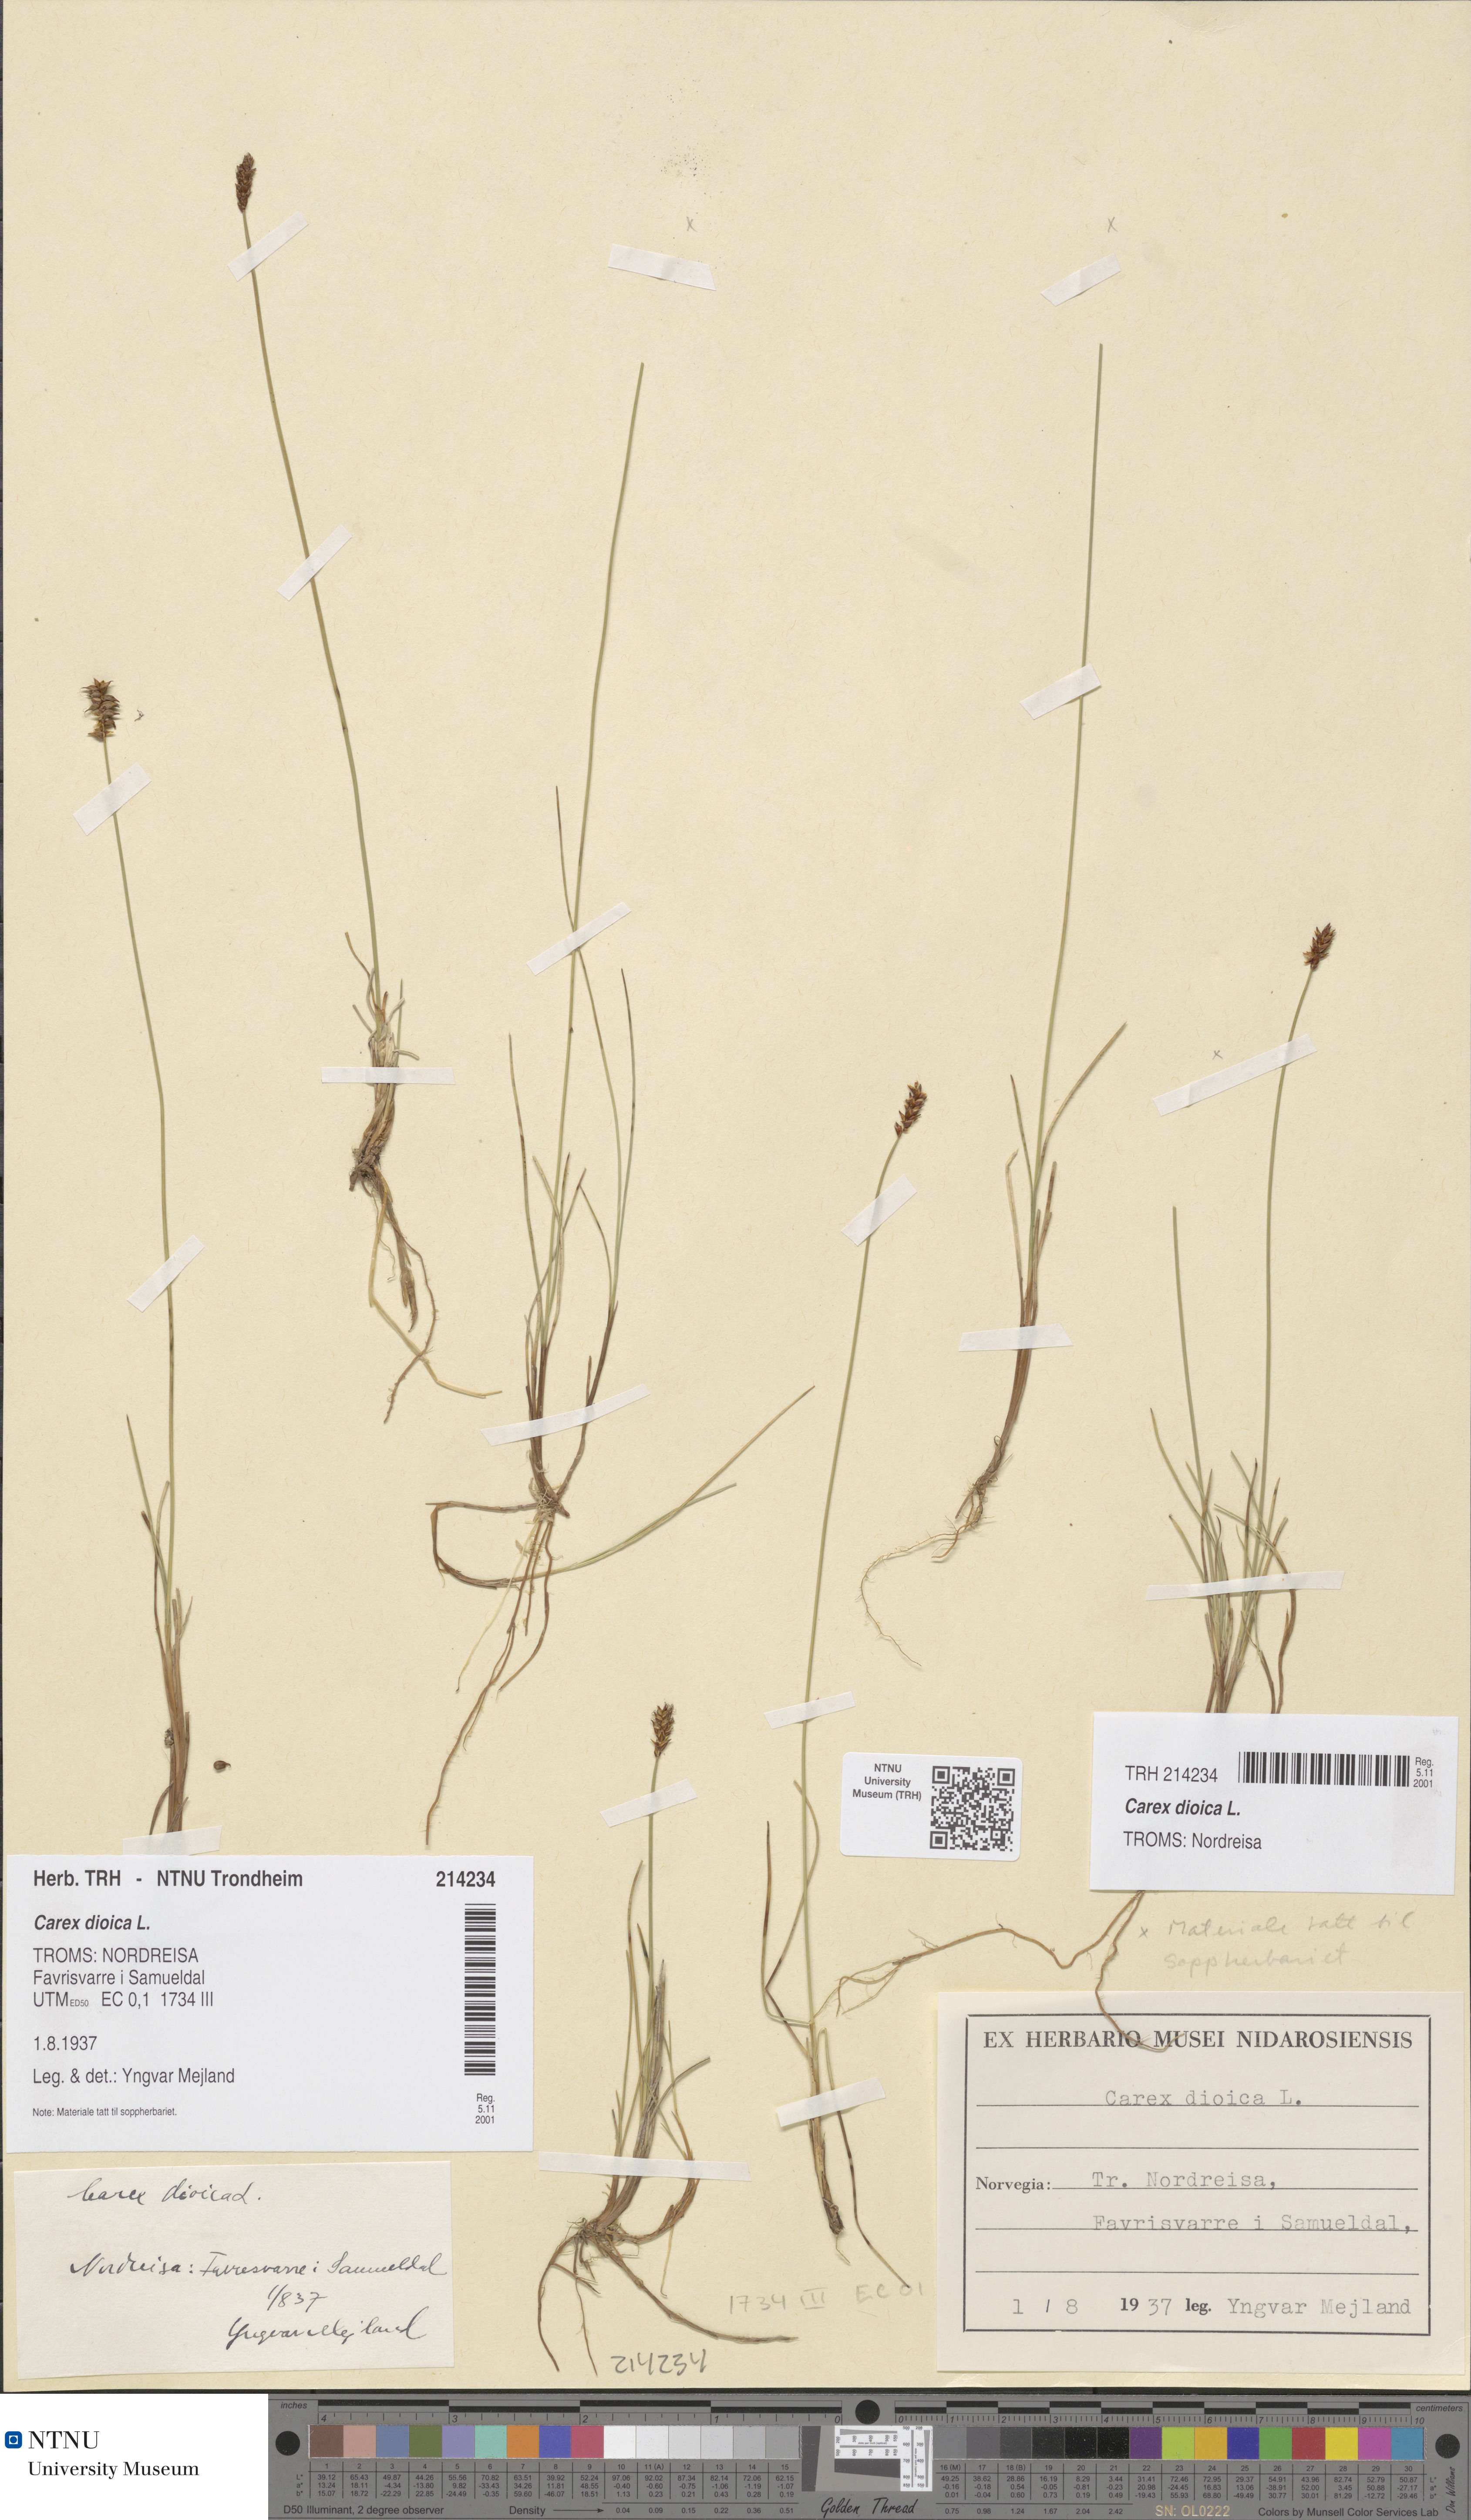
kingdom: Plantae
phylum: Tracheophyta
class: Liliopsida
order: Poales
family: Cyperaceae
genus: Carex
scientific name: Carex dioica
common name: Dioecious sedge
